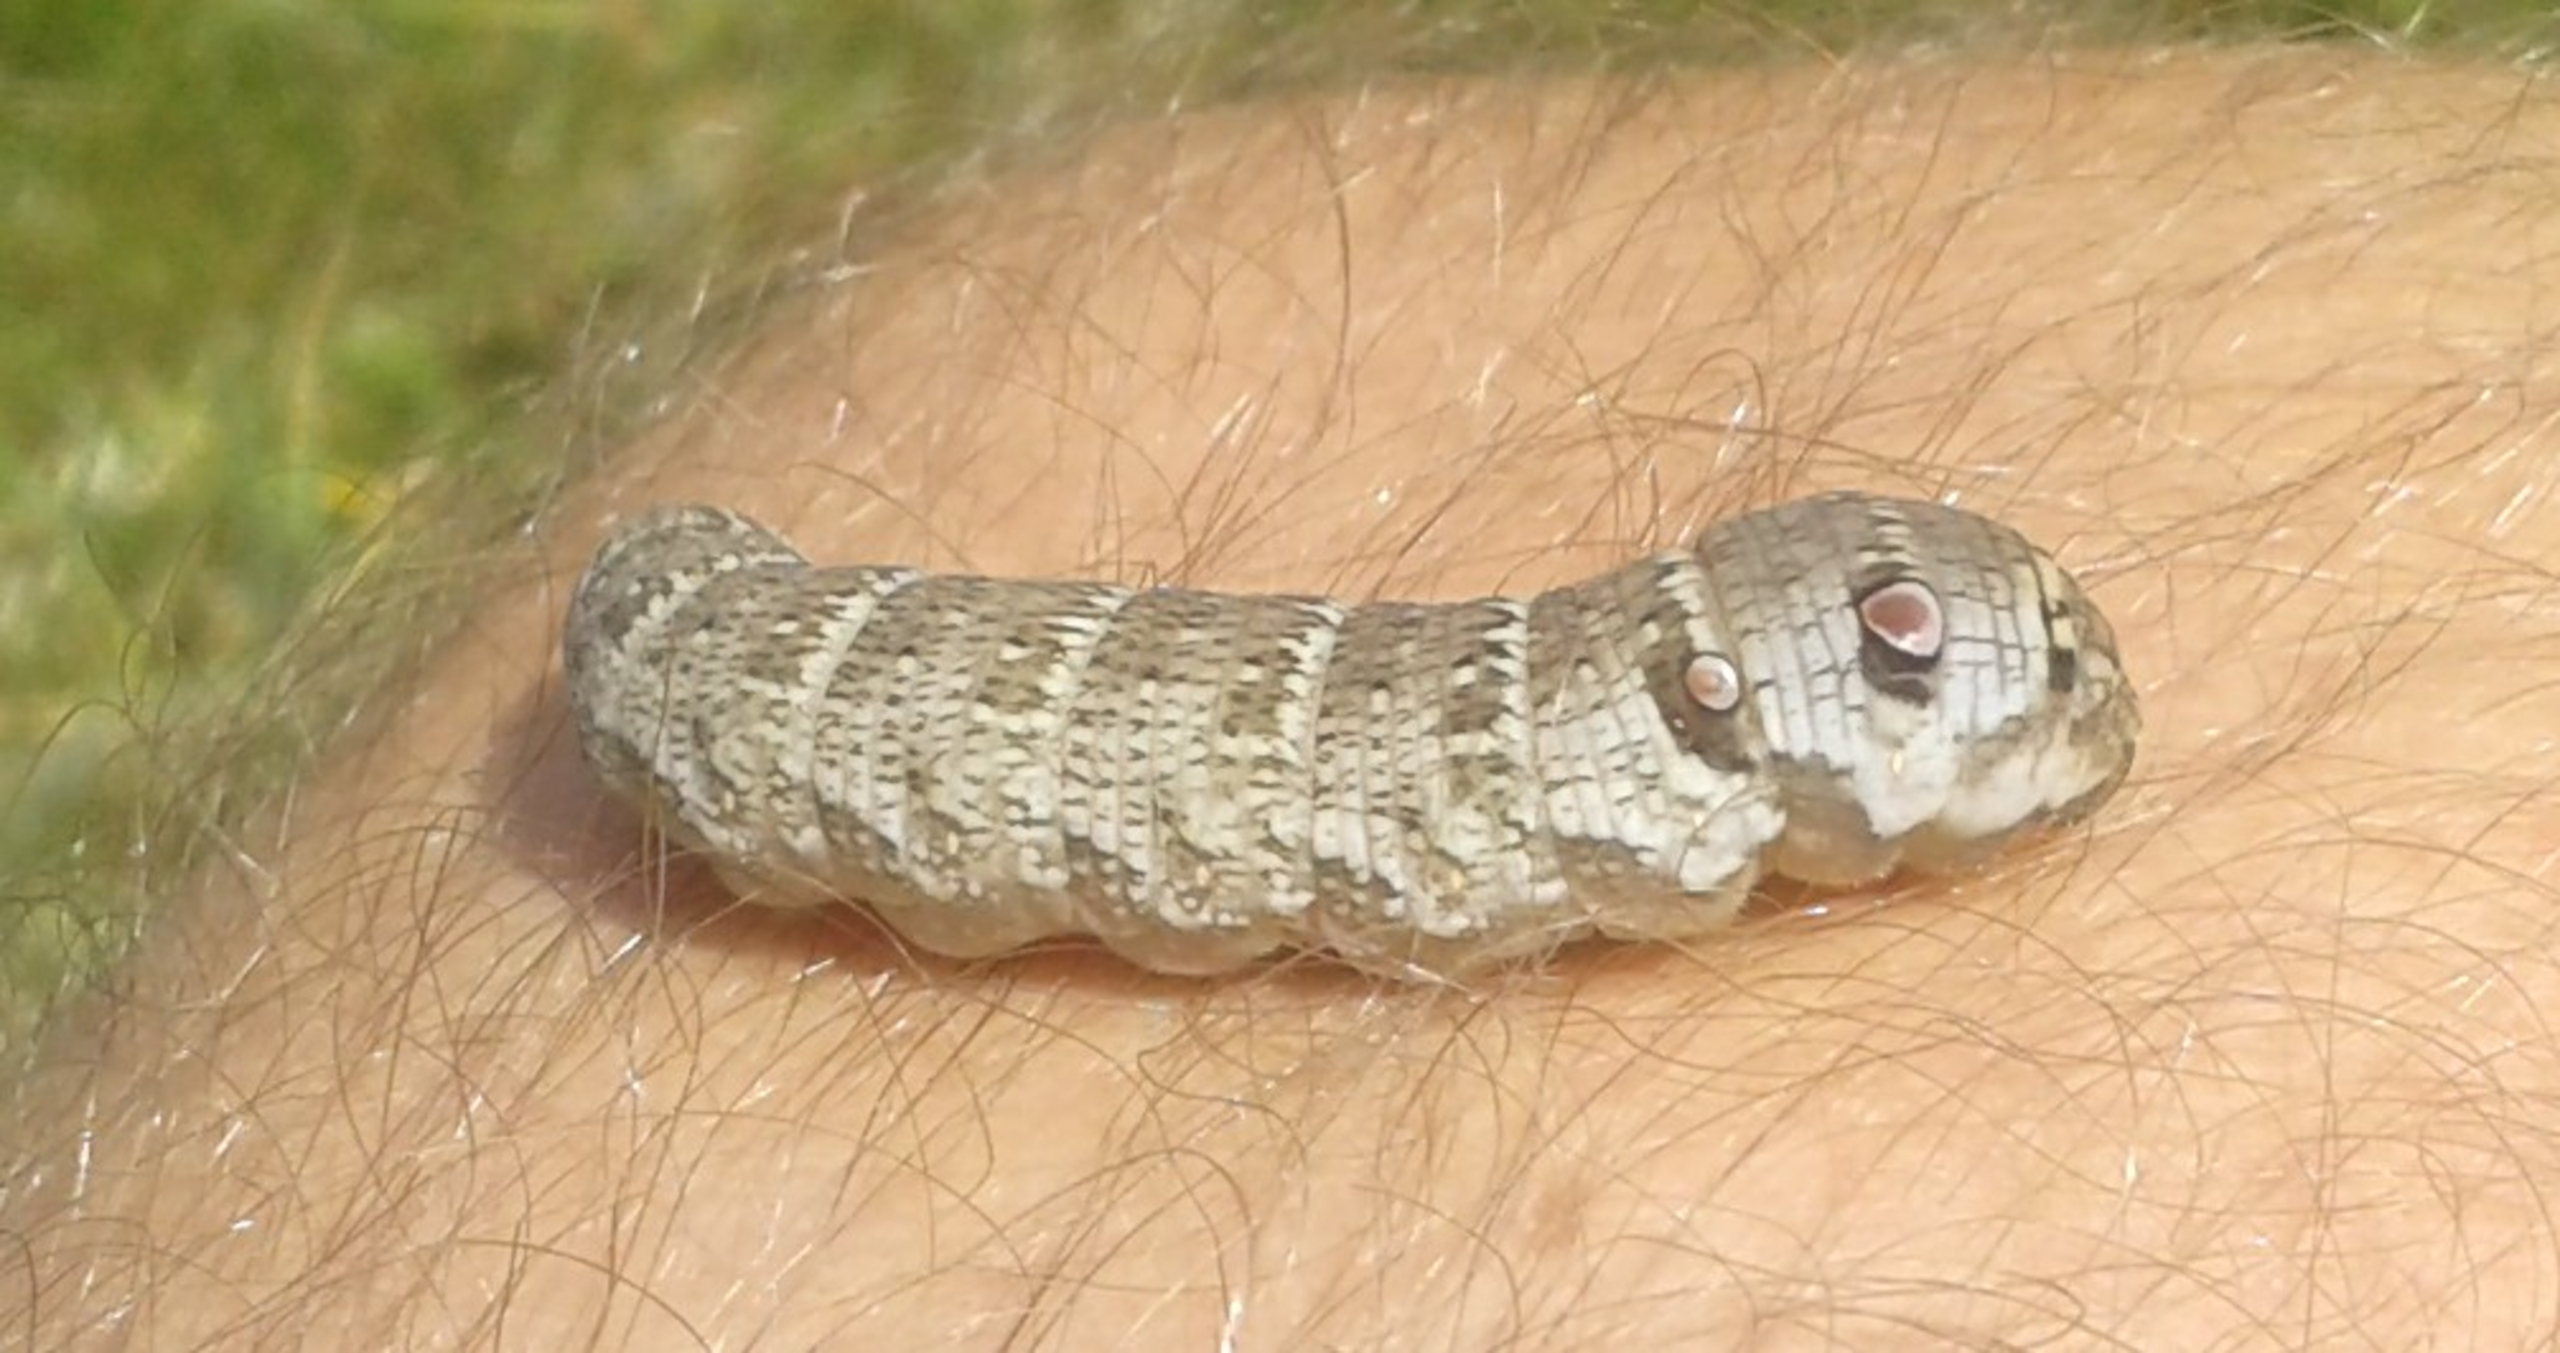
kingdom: Animalia
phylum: Arthropoda
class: Insecta
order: Lepidoptera
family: Sphingidae
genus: Deilephila
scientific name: Deilephila porcellus
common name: Lille vinsværmer
